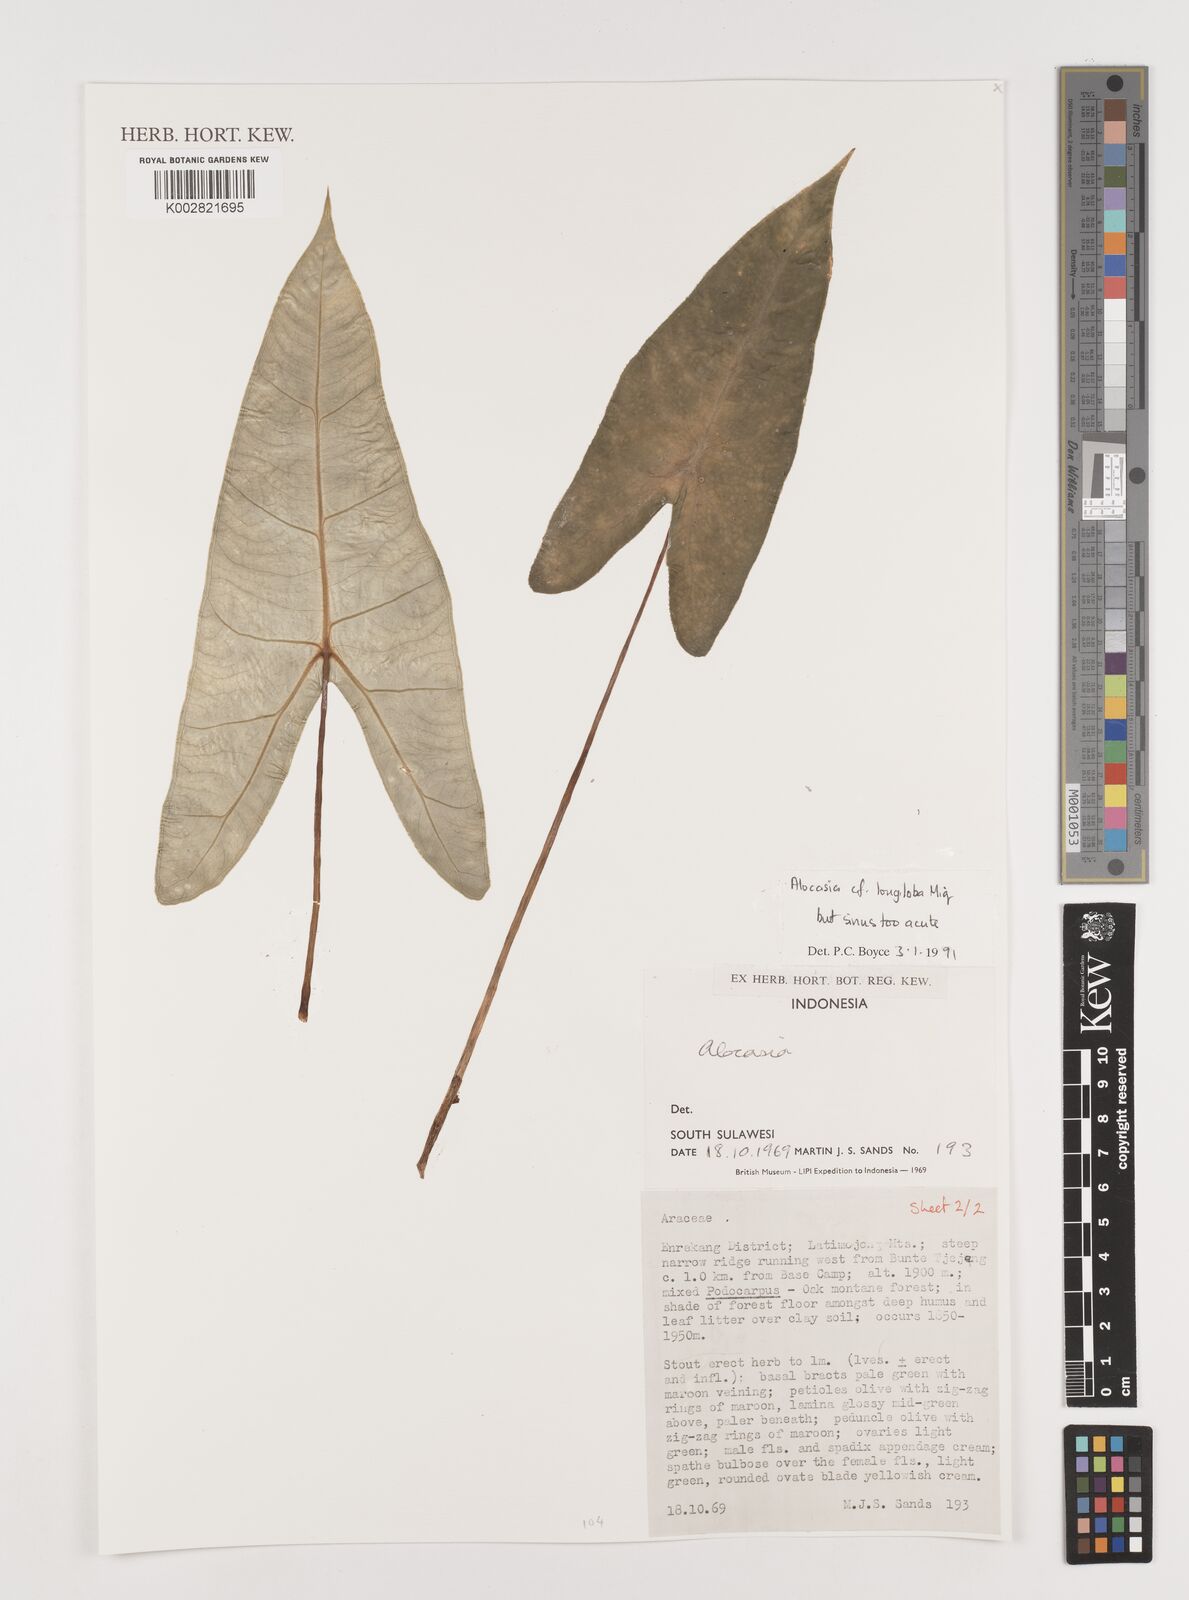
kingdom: Plantae
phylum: Tracheophyta
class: Liliopsida
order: Alismatales
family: Araceae
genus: Alocasia
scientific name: Alocasia longiloba
